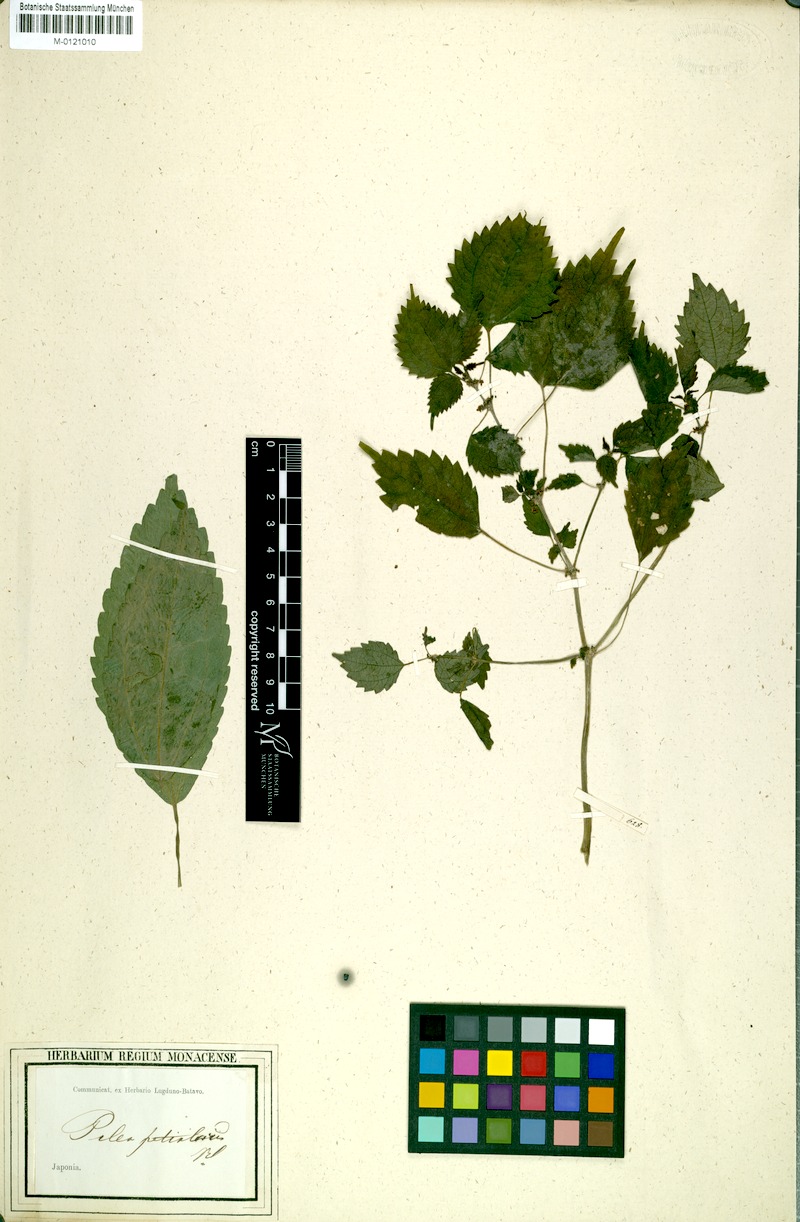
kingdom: Plantae
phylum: Tracheophyta
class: Magnoliopsida
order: Rosales
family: Urticaceae
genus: Pilea
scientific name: Pilea angulata
